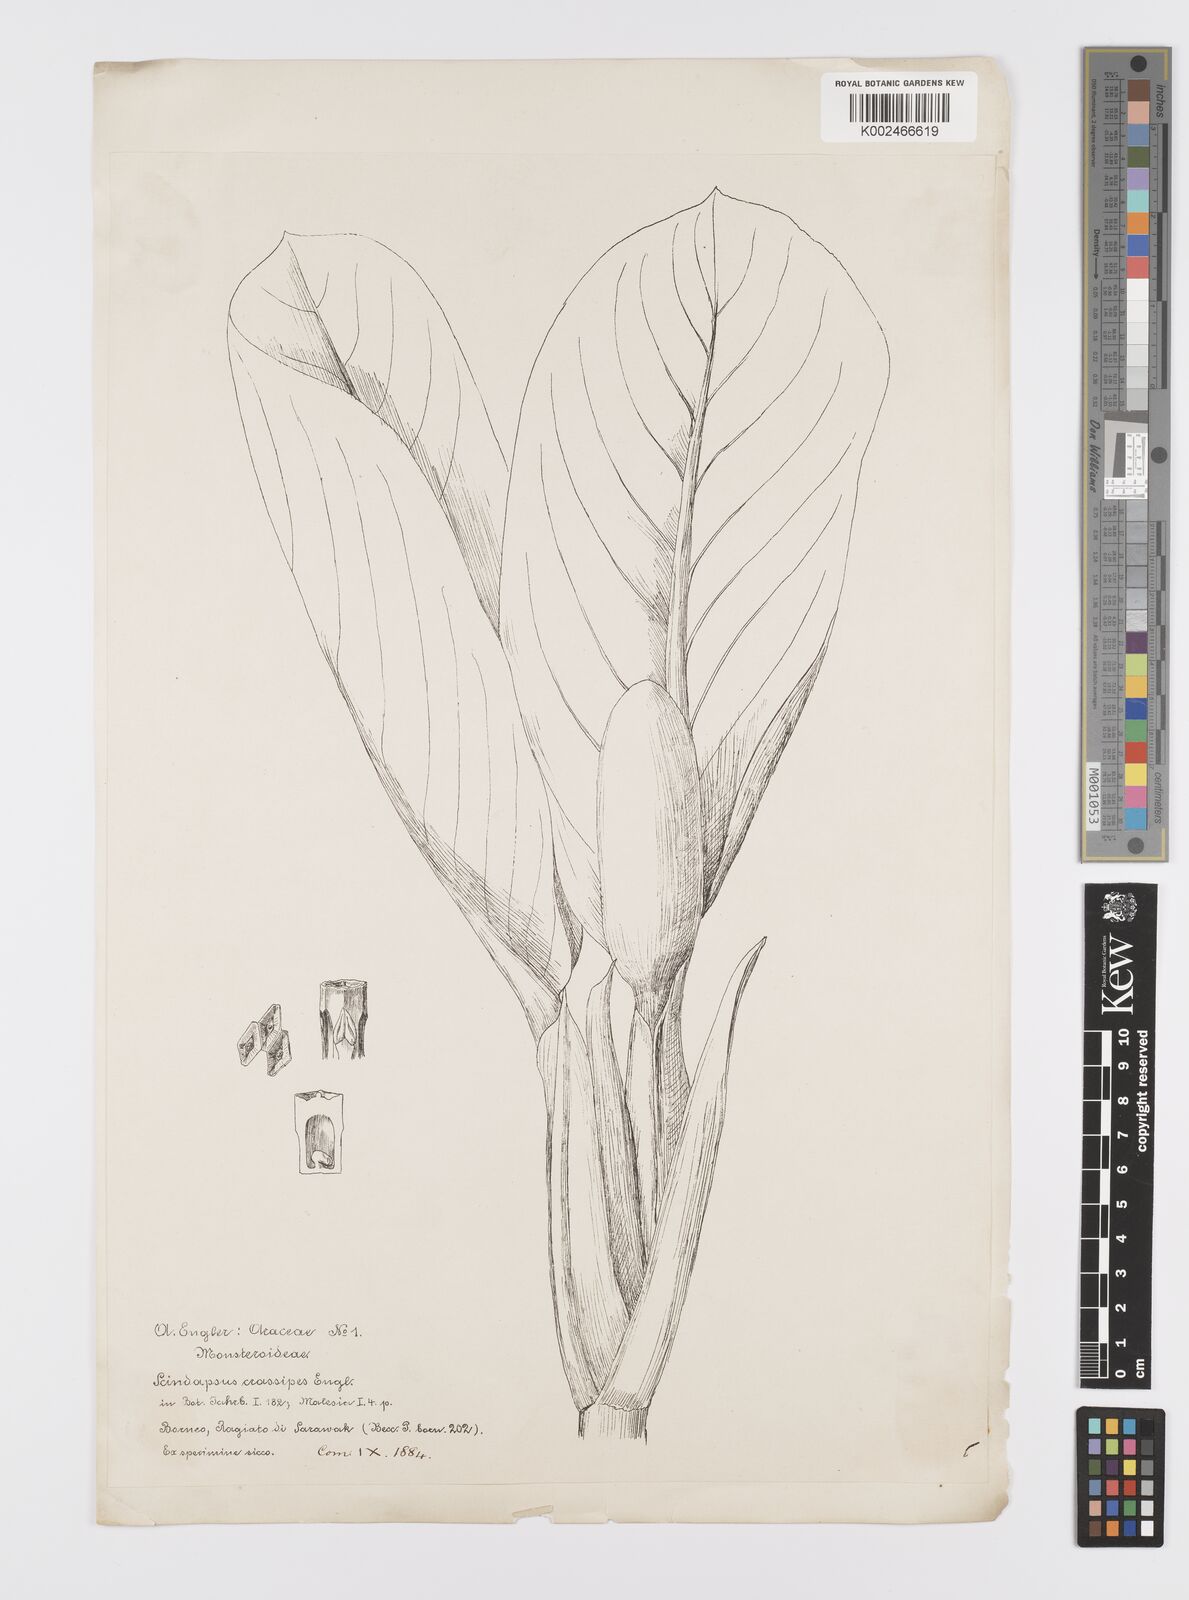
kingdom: Plantae
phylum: Tracheophyta
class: Liliopsida
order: Alismatales
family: Araceae
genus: Scindapsus
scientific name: Scindapsus crassipes
